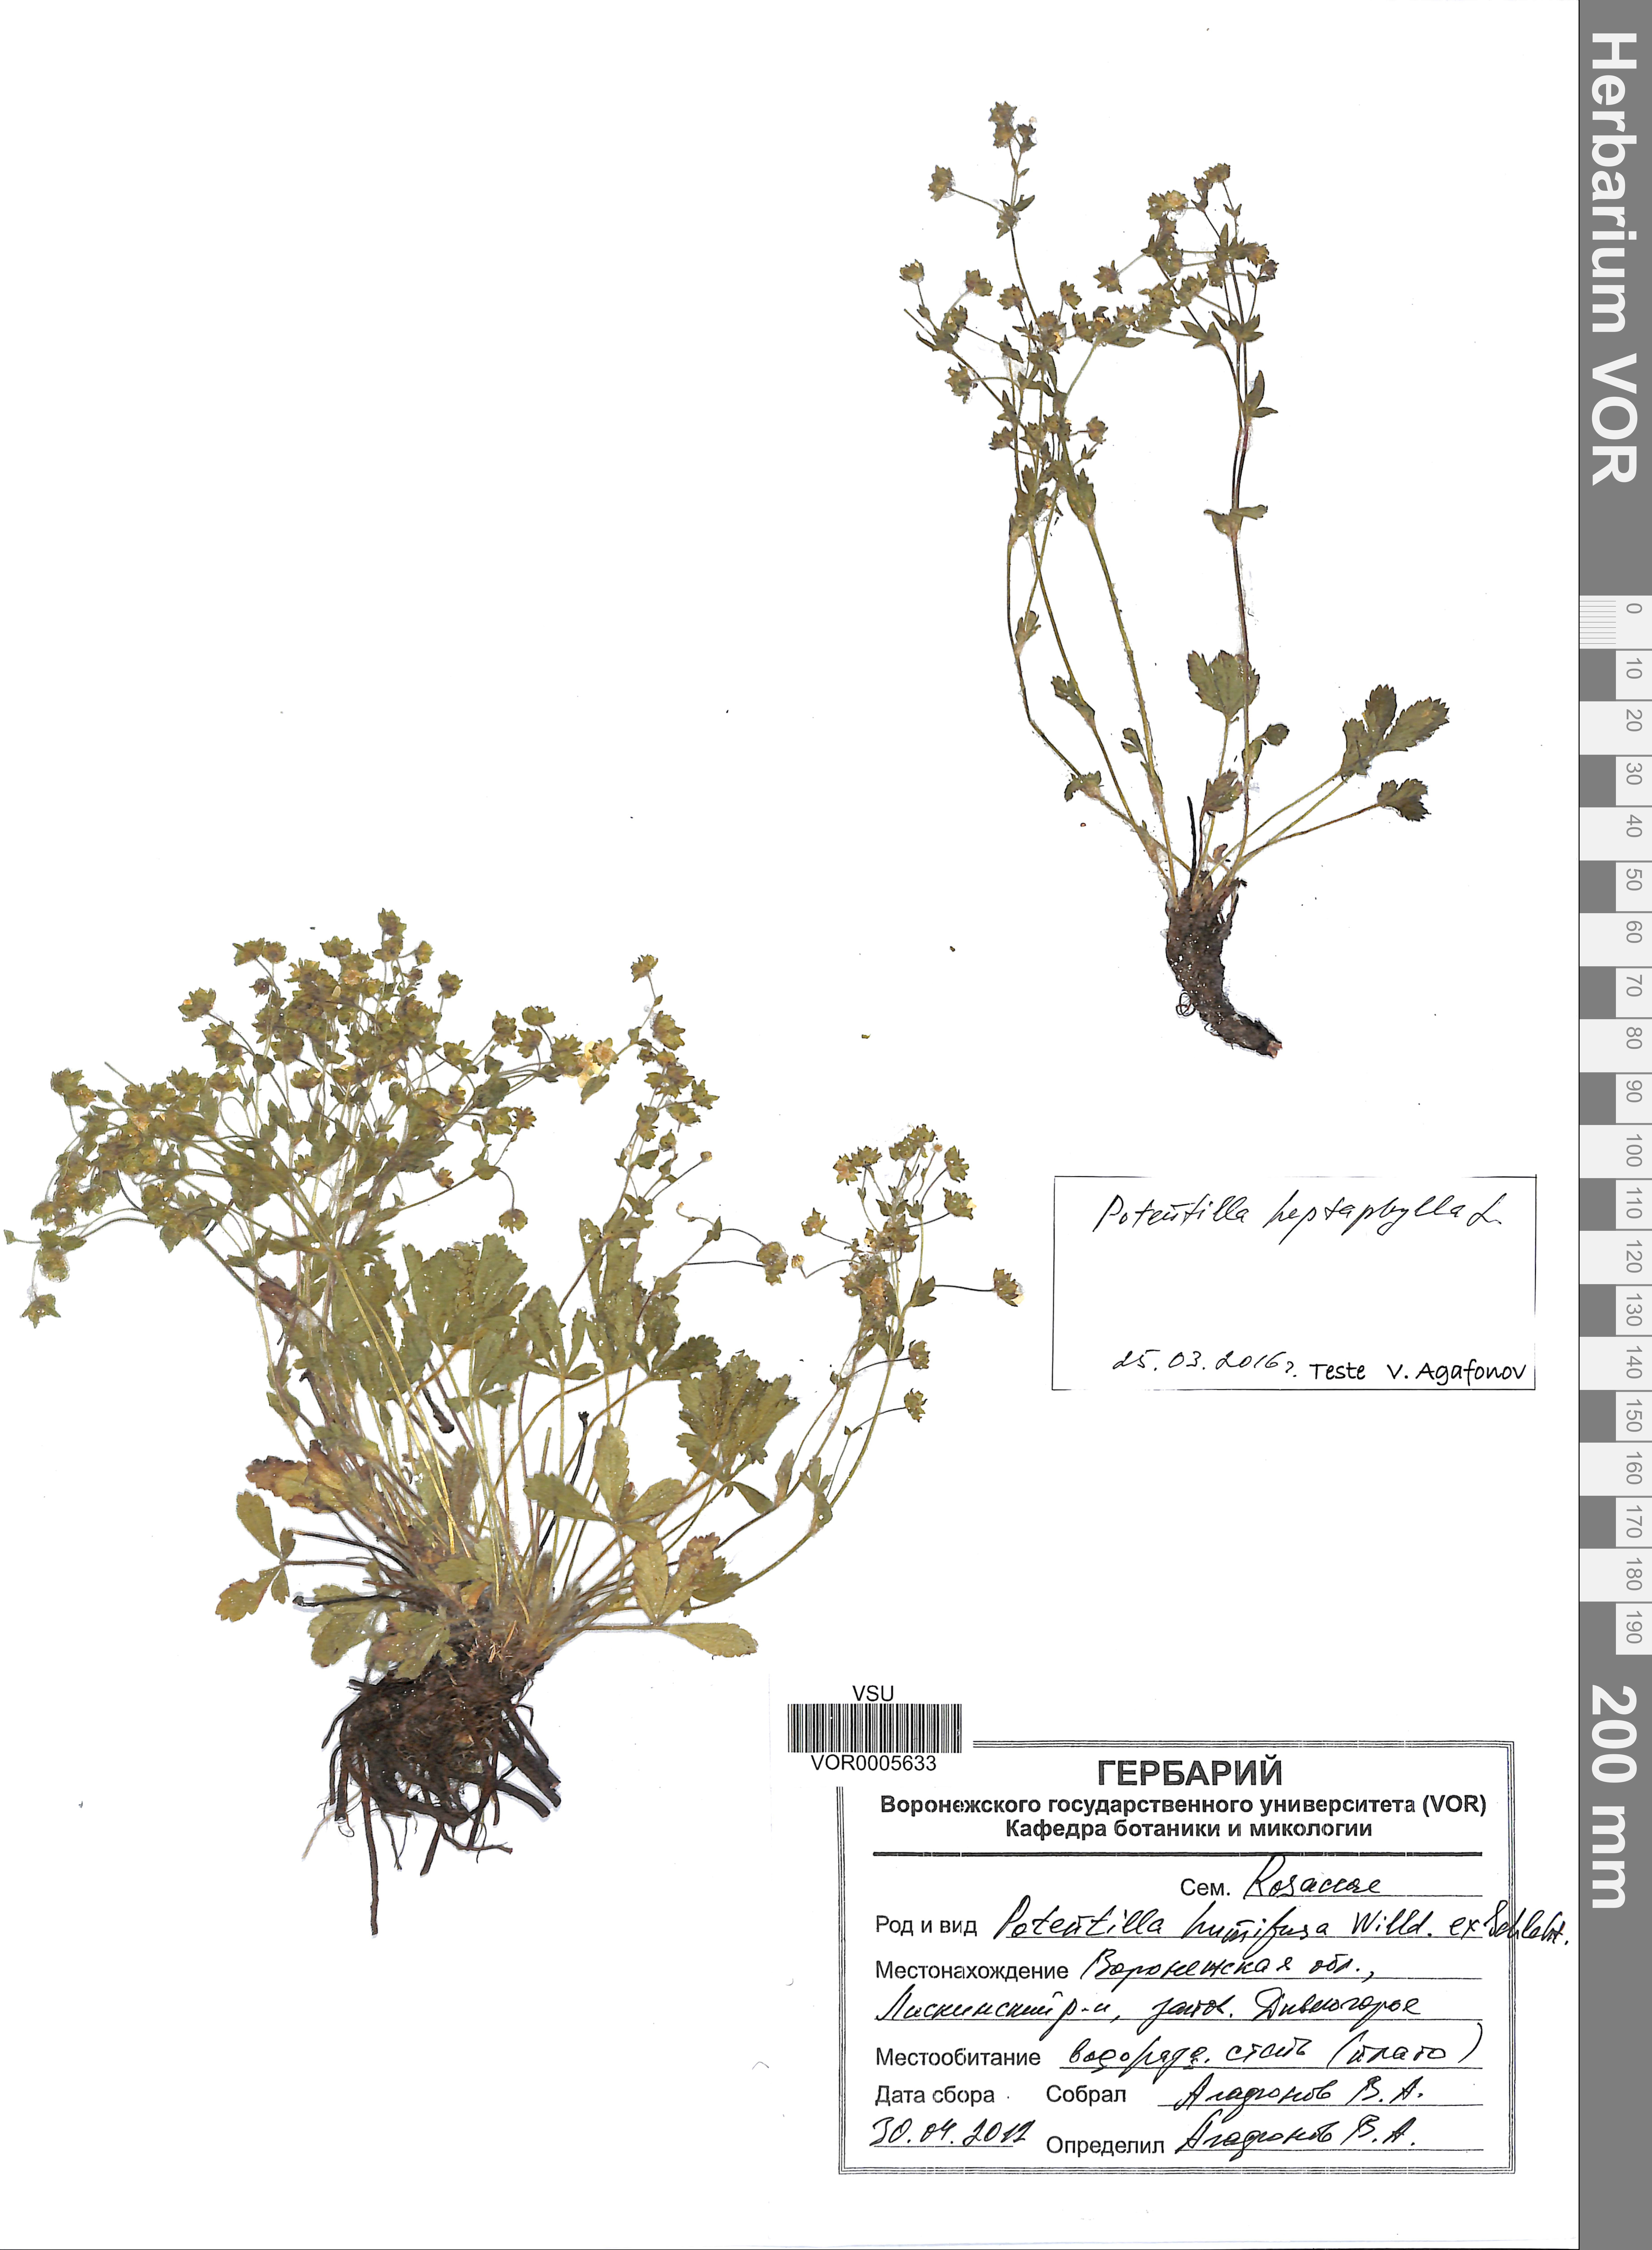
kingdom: Plantae
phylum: Tracheophyta
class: Magnoliopsida
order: Rosales
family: Rosaceae
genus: Potentilla
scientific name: Potentilla heptaphylla
